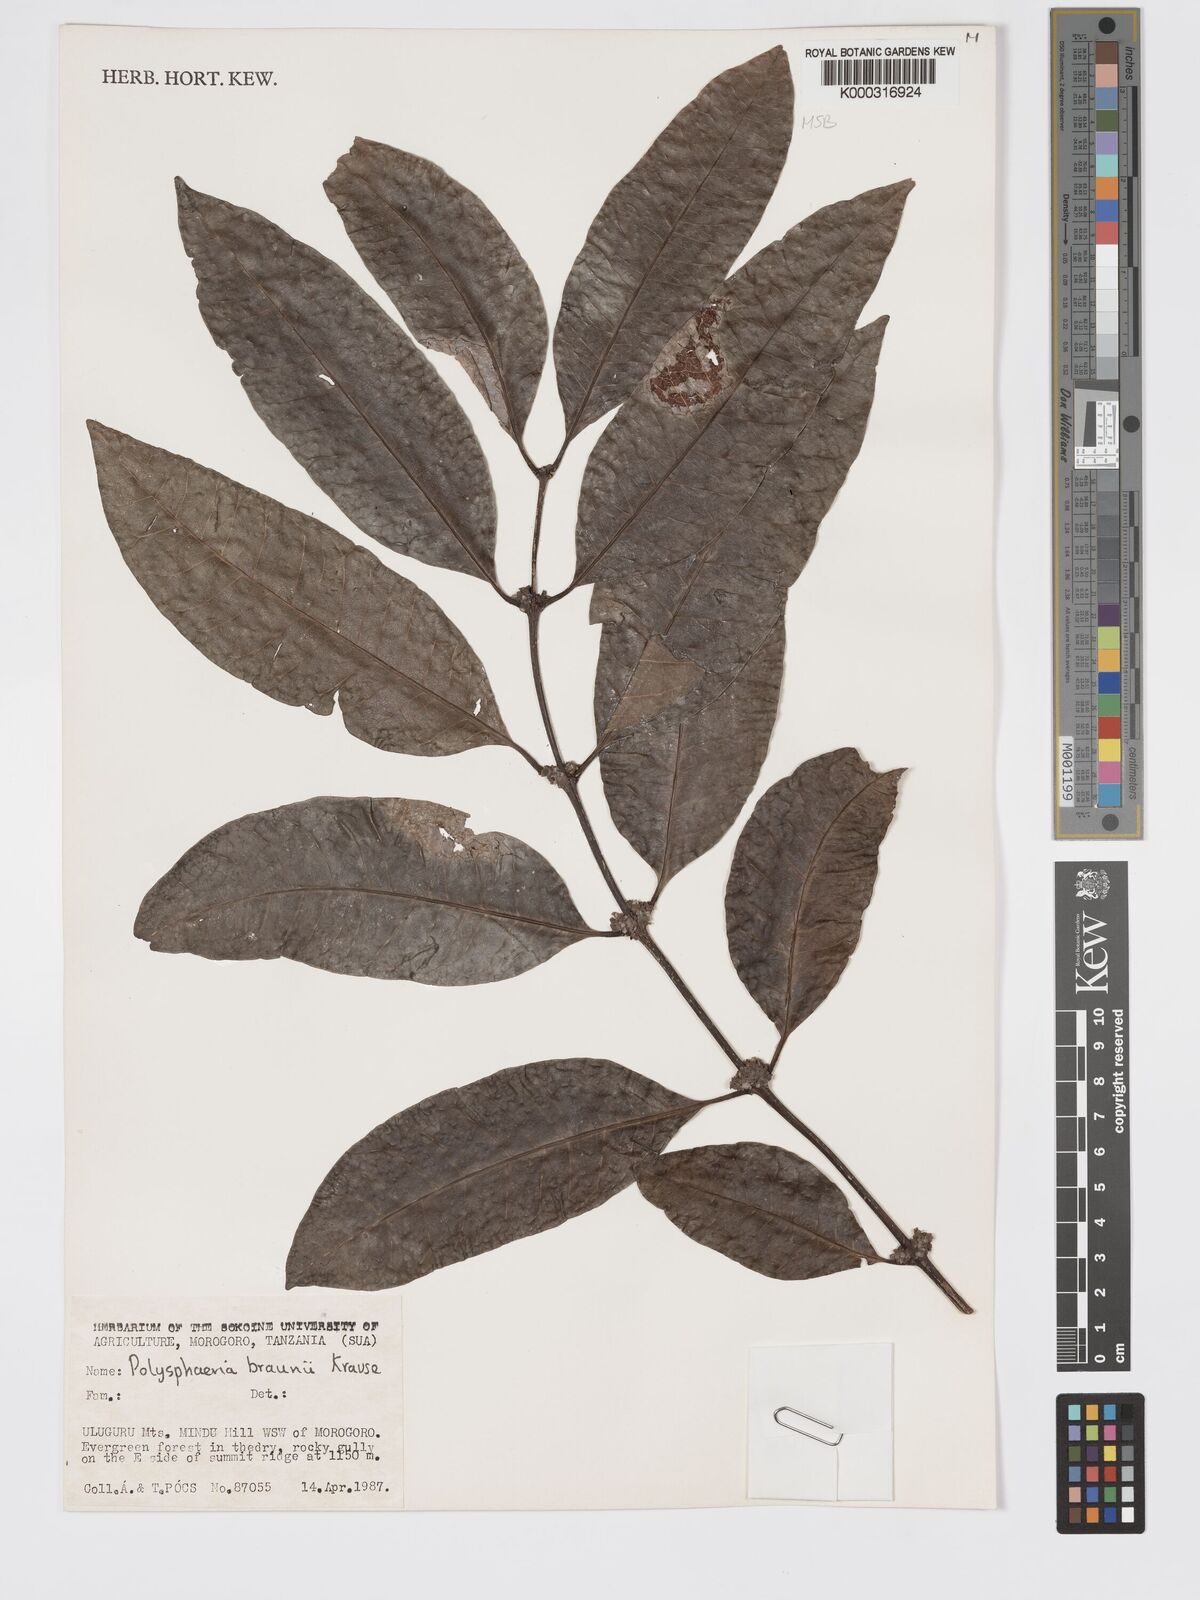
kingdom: Plantae
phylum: Tracheophyta
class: Magnoliopsida
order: Gentianales
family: Rubiaceae
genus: Polysphaeria
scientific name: Polysphaeria braunii
